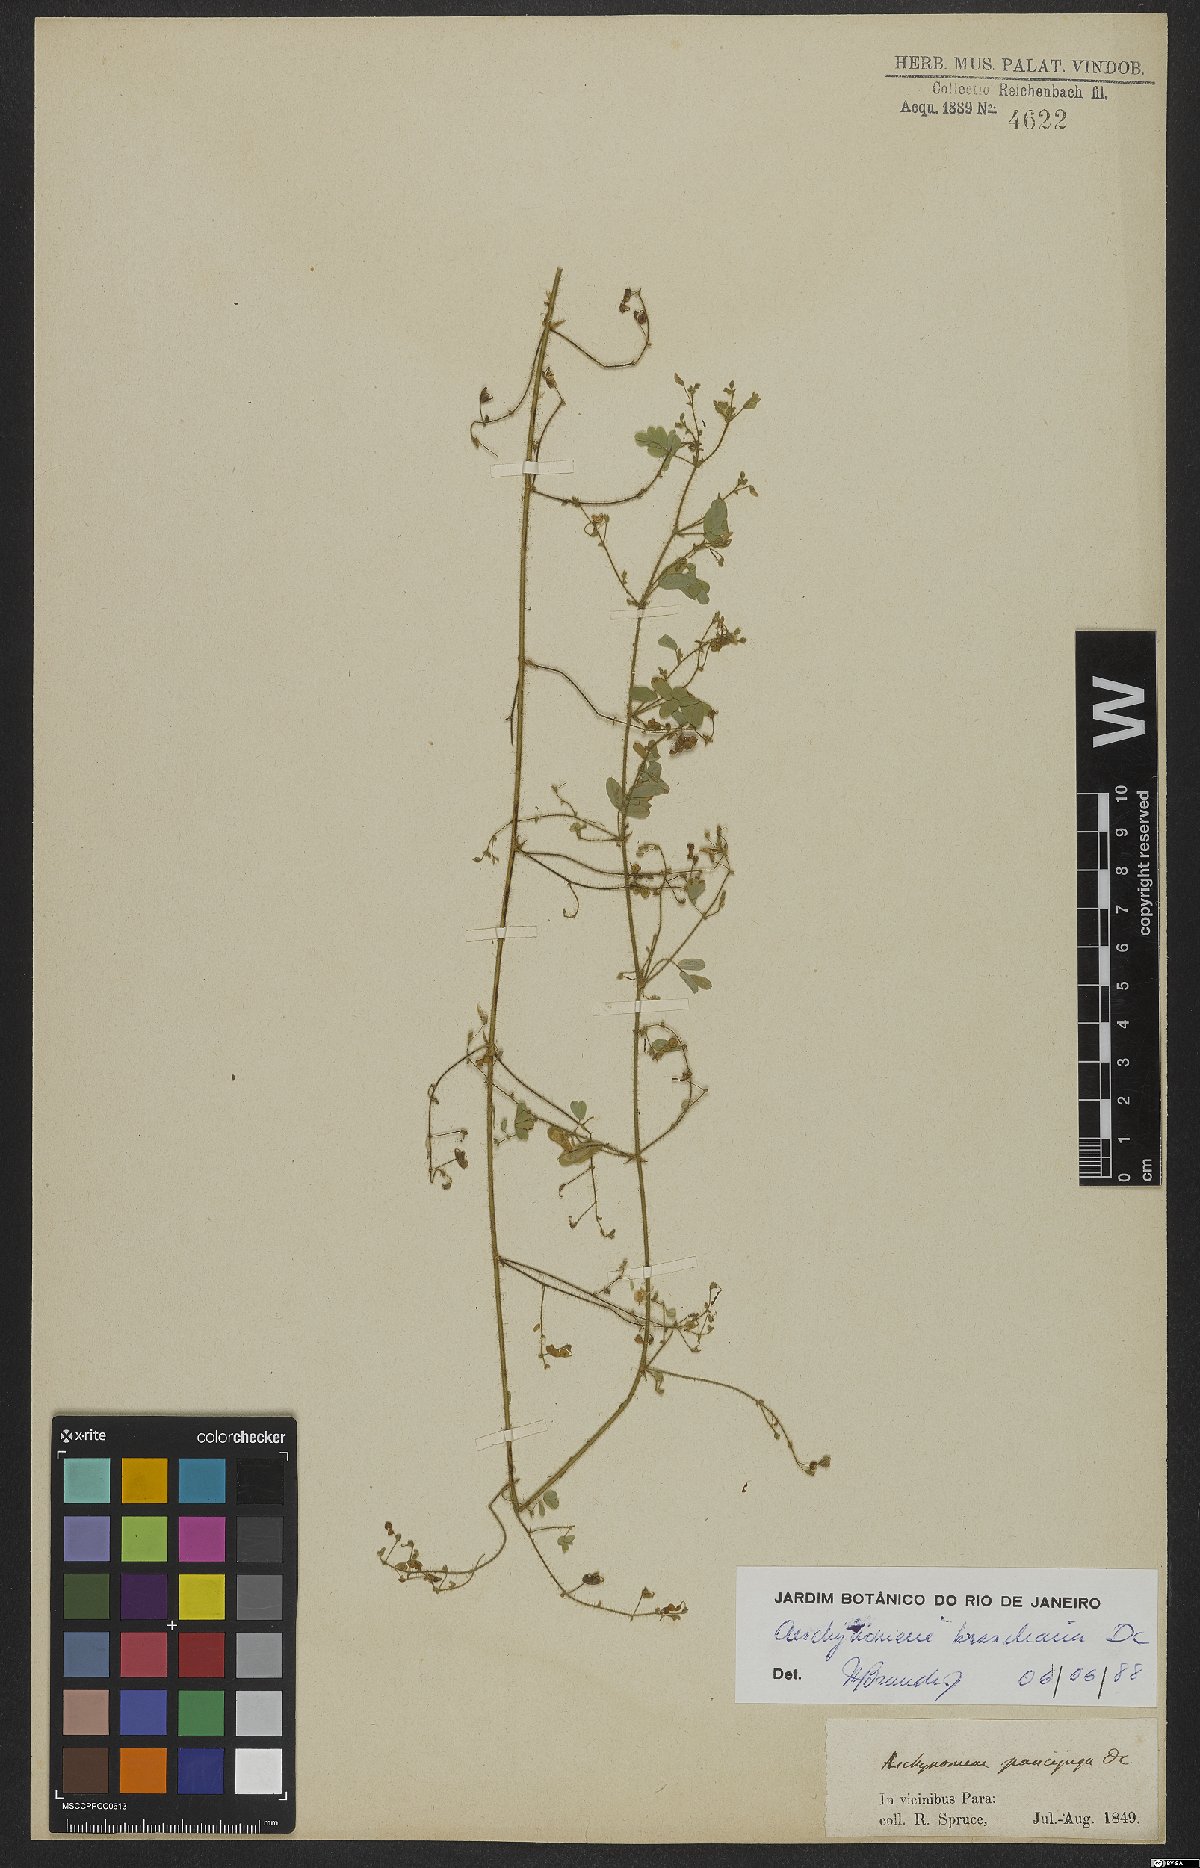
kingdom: Plantae
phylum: Tracheophyta
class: Magnoliopsida
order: Fabales
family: Fabaceae
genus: Ctenodon
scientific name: Ctenodon brasilianus
